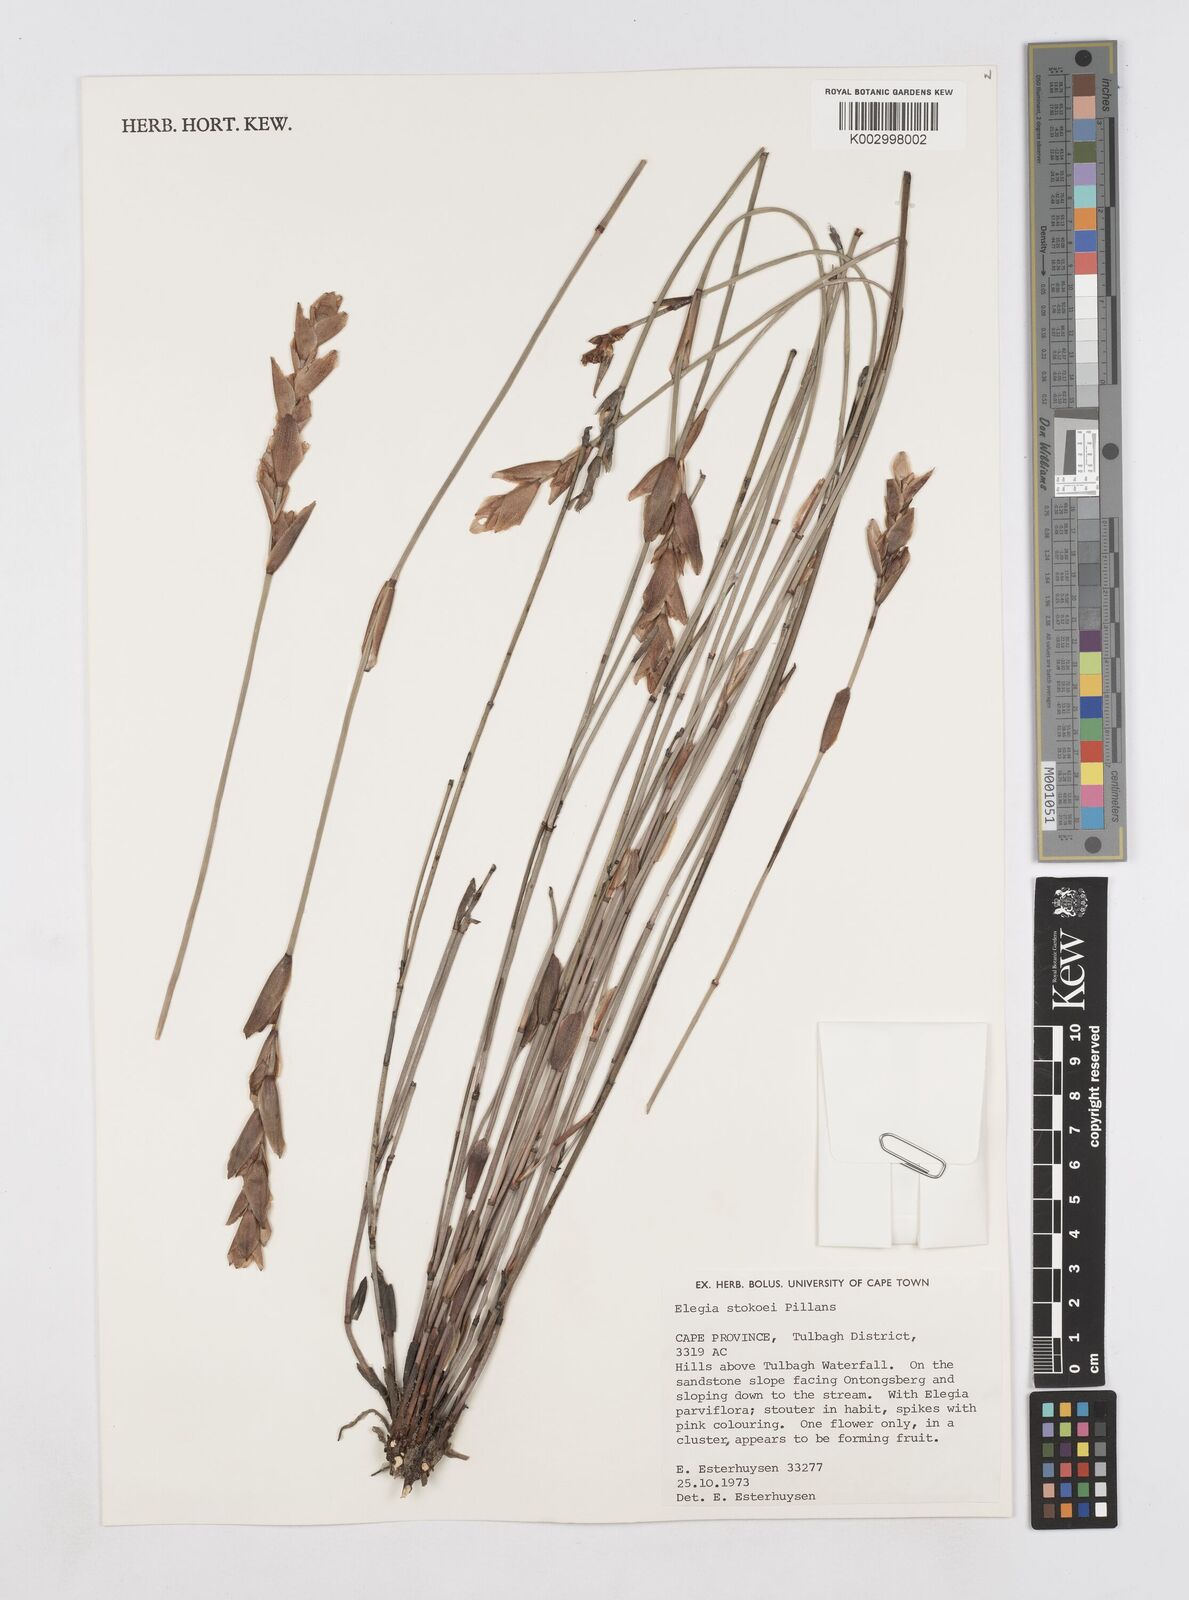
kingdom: Plantae
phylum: Tracheophyta
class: Liliopsida
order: Poales
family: Restionaceae
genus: Elegia
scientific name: Elegia stokoei
